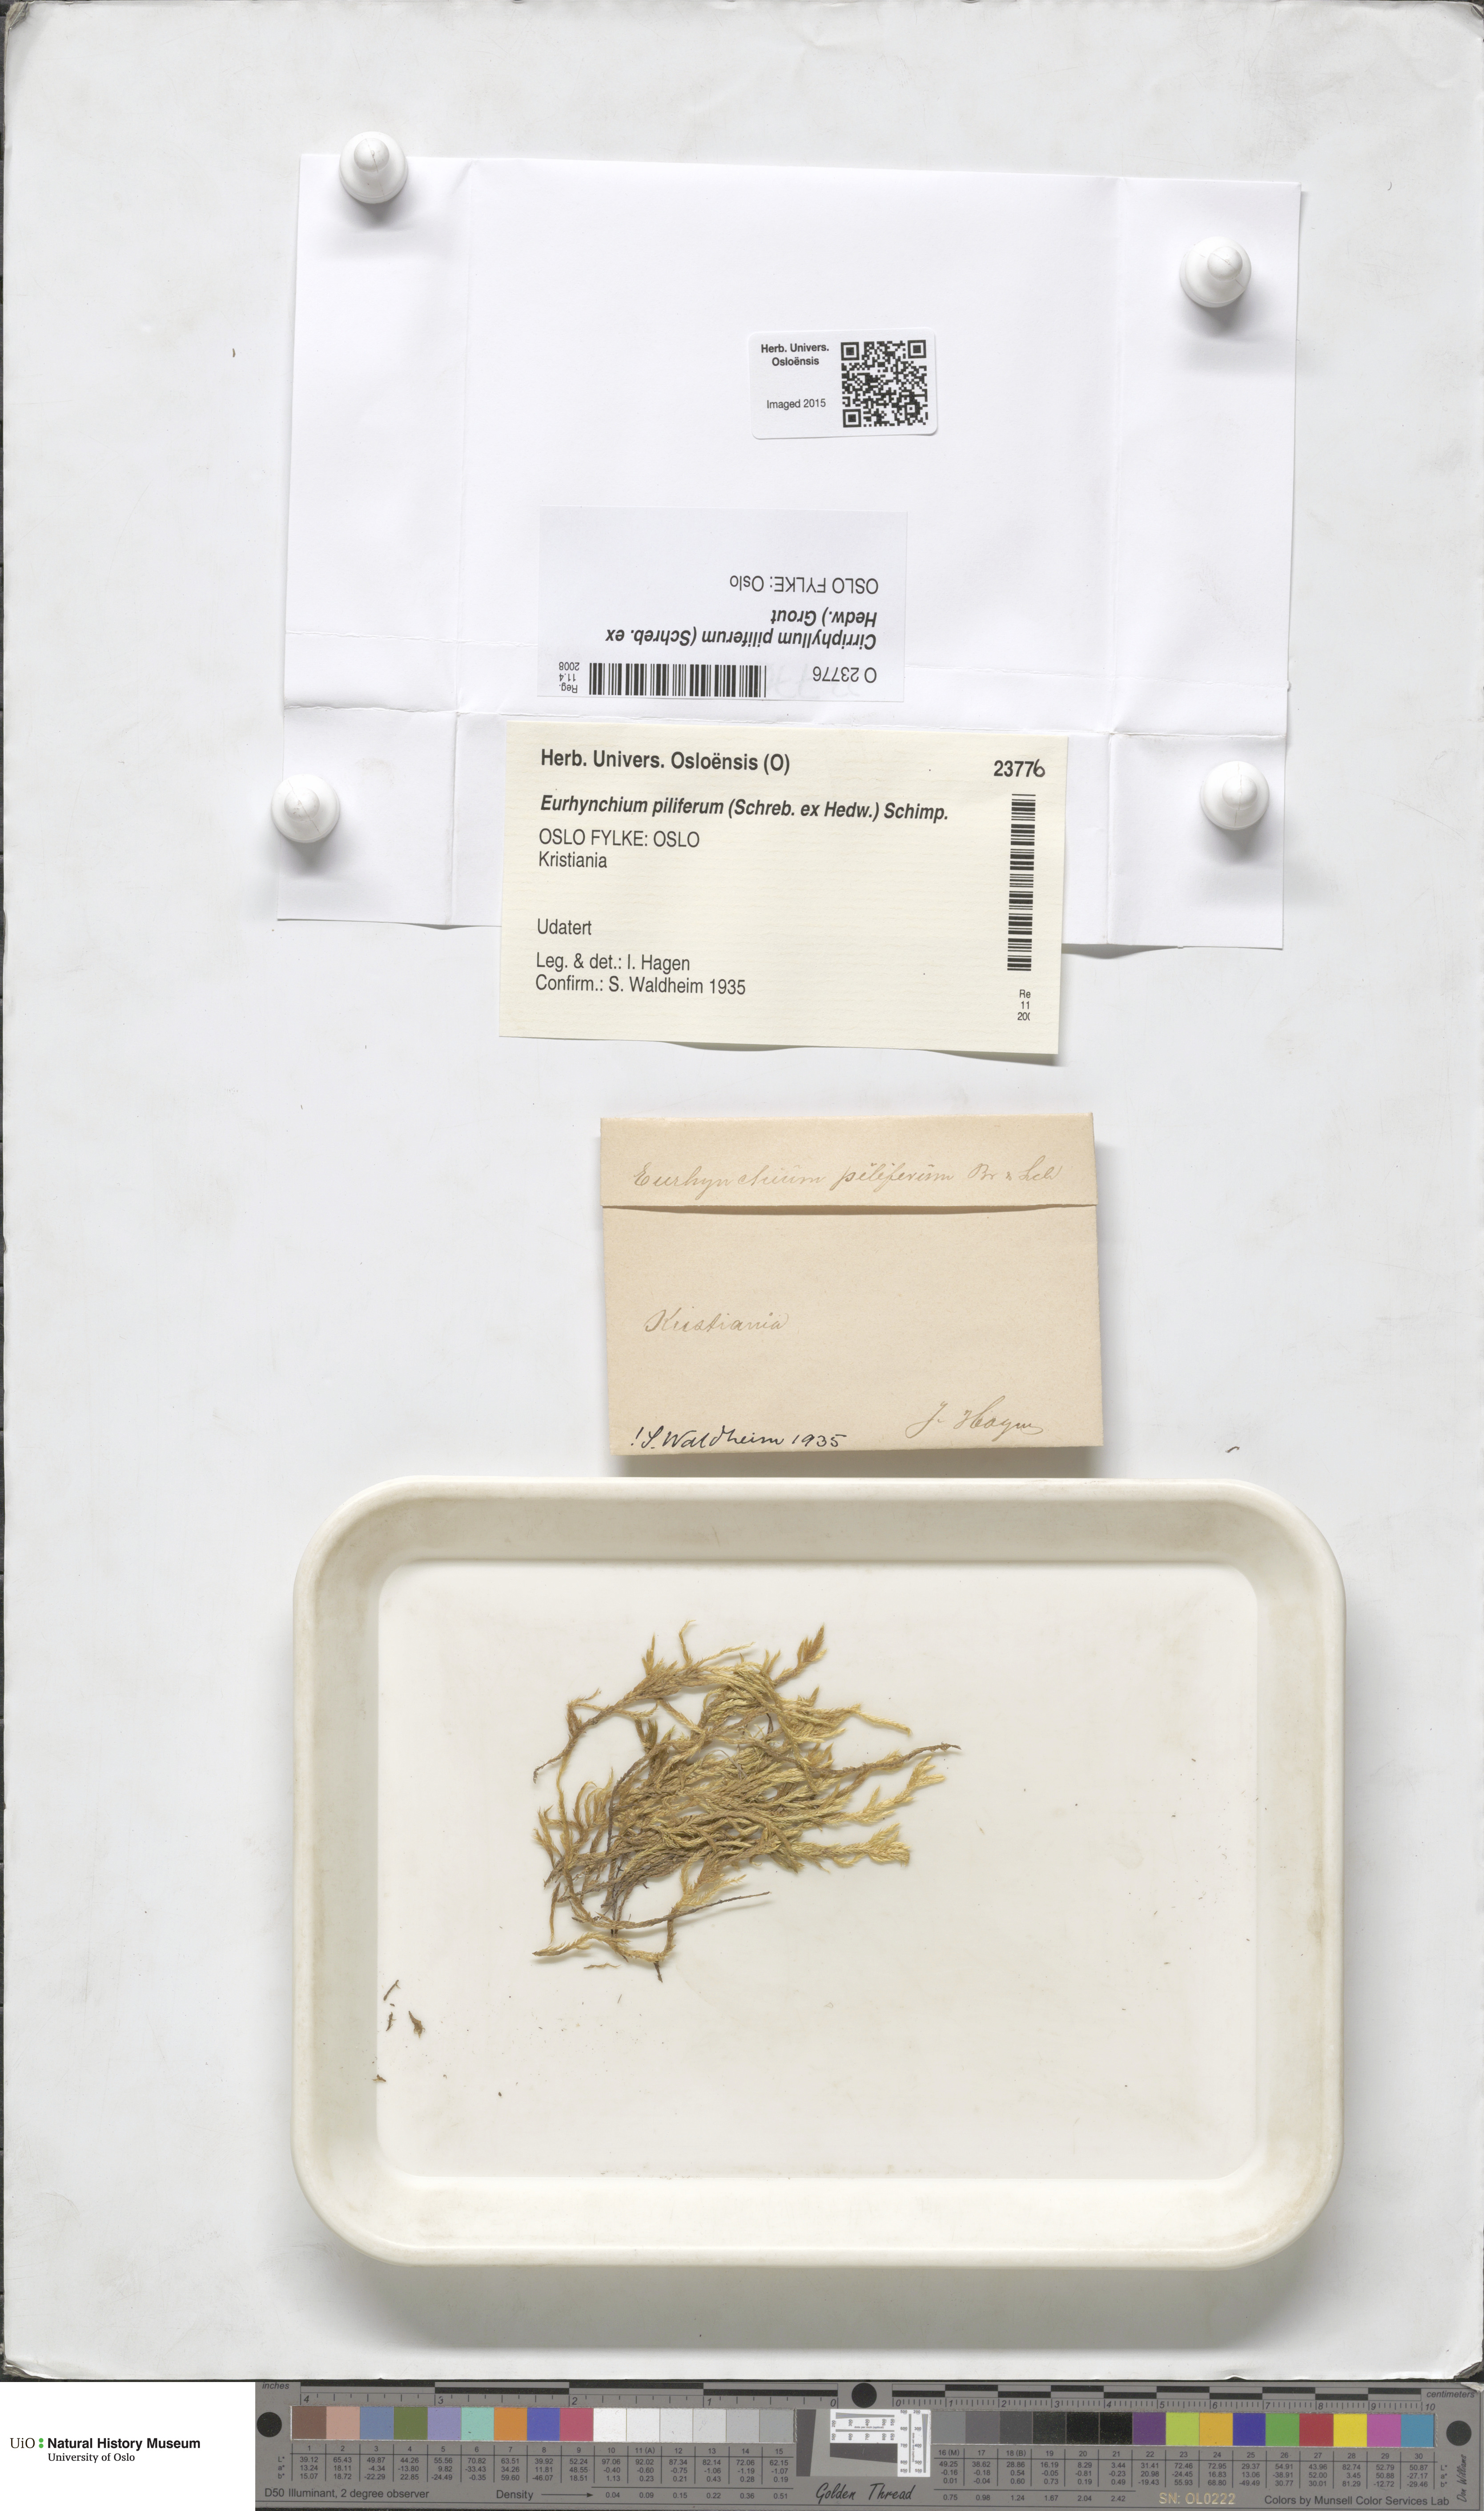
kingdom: Plantae
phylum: Bryophyta
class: Bryopsida
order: Hypnales
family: Brachytheciaceae
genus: Cirriphyllum
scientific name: Cirriphyllum piliferum
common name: Hair-pointed moss
